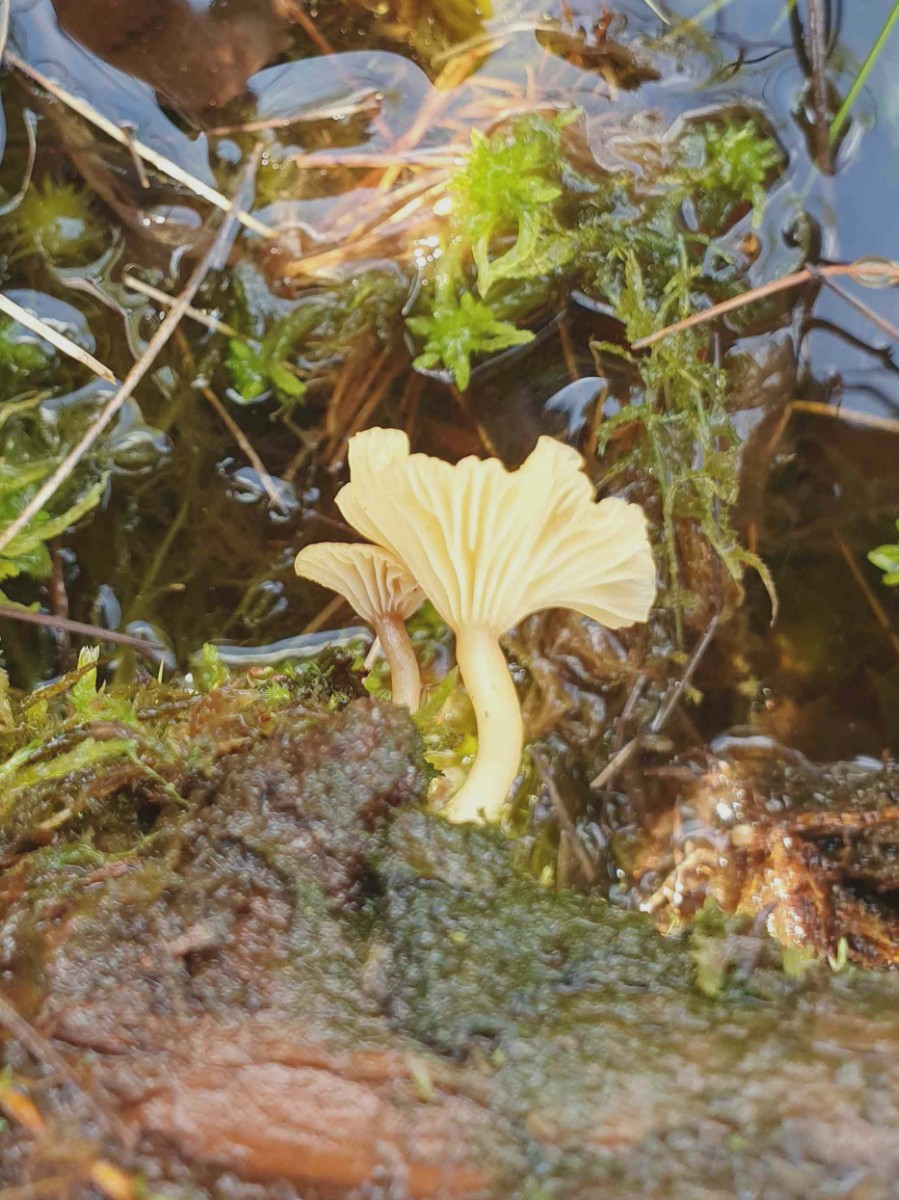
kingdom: Fungi
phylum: Basidiomycota
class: Agaricomycetes
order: Agaricales
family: Hygrophoraceae
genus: Lichenomphalia
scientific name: Lichenomphalia umbellifera
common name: tørve-lavhat
